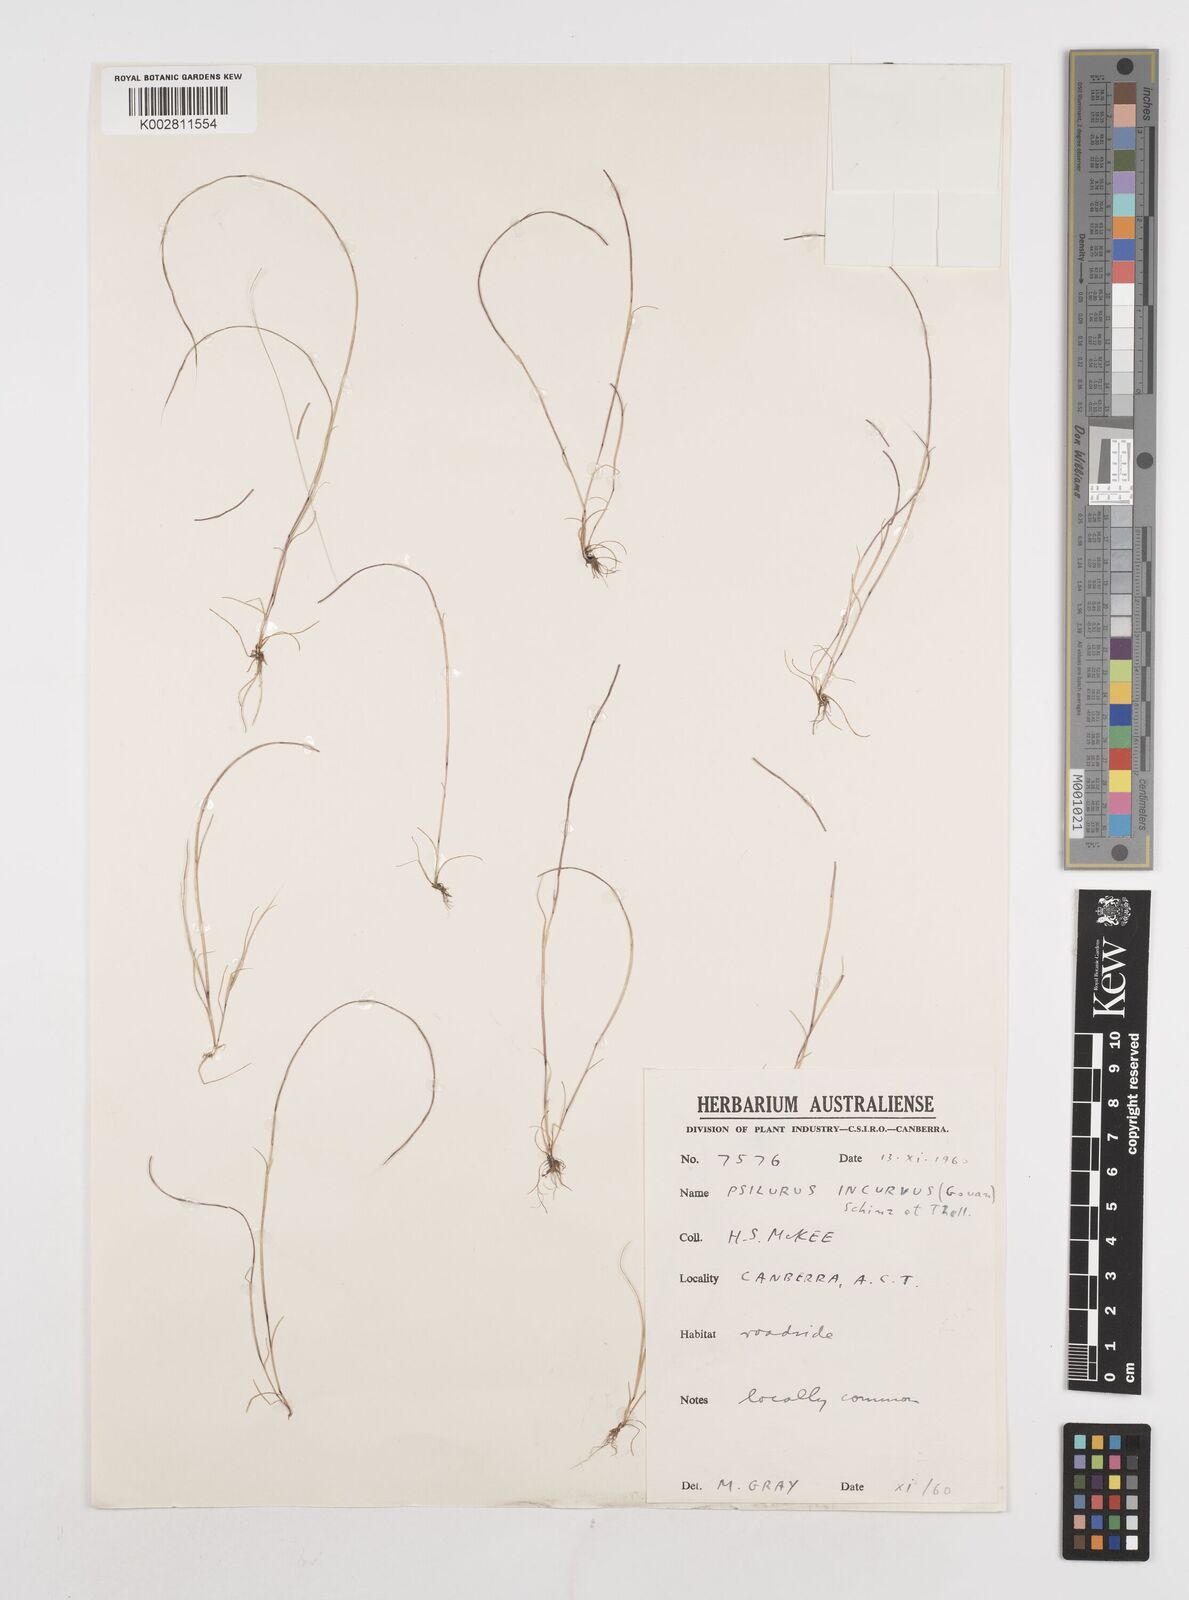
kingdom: Plantae
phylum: Tracheophyta
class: Liliopsida
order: Poales
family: Poaceae
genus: Festuca
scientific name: Festuca incurva
